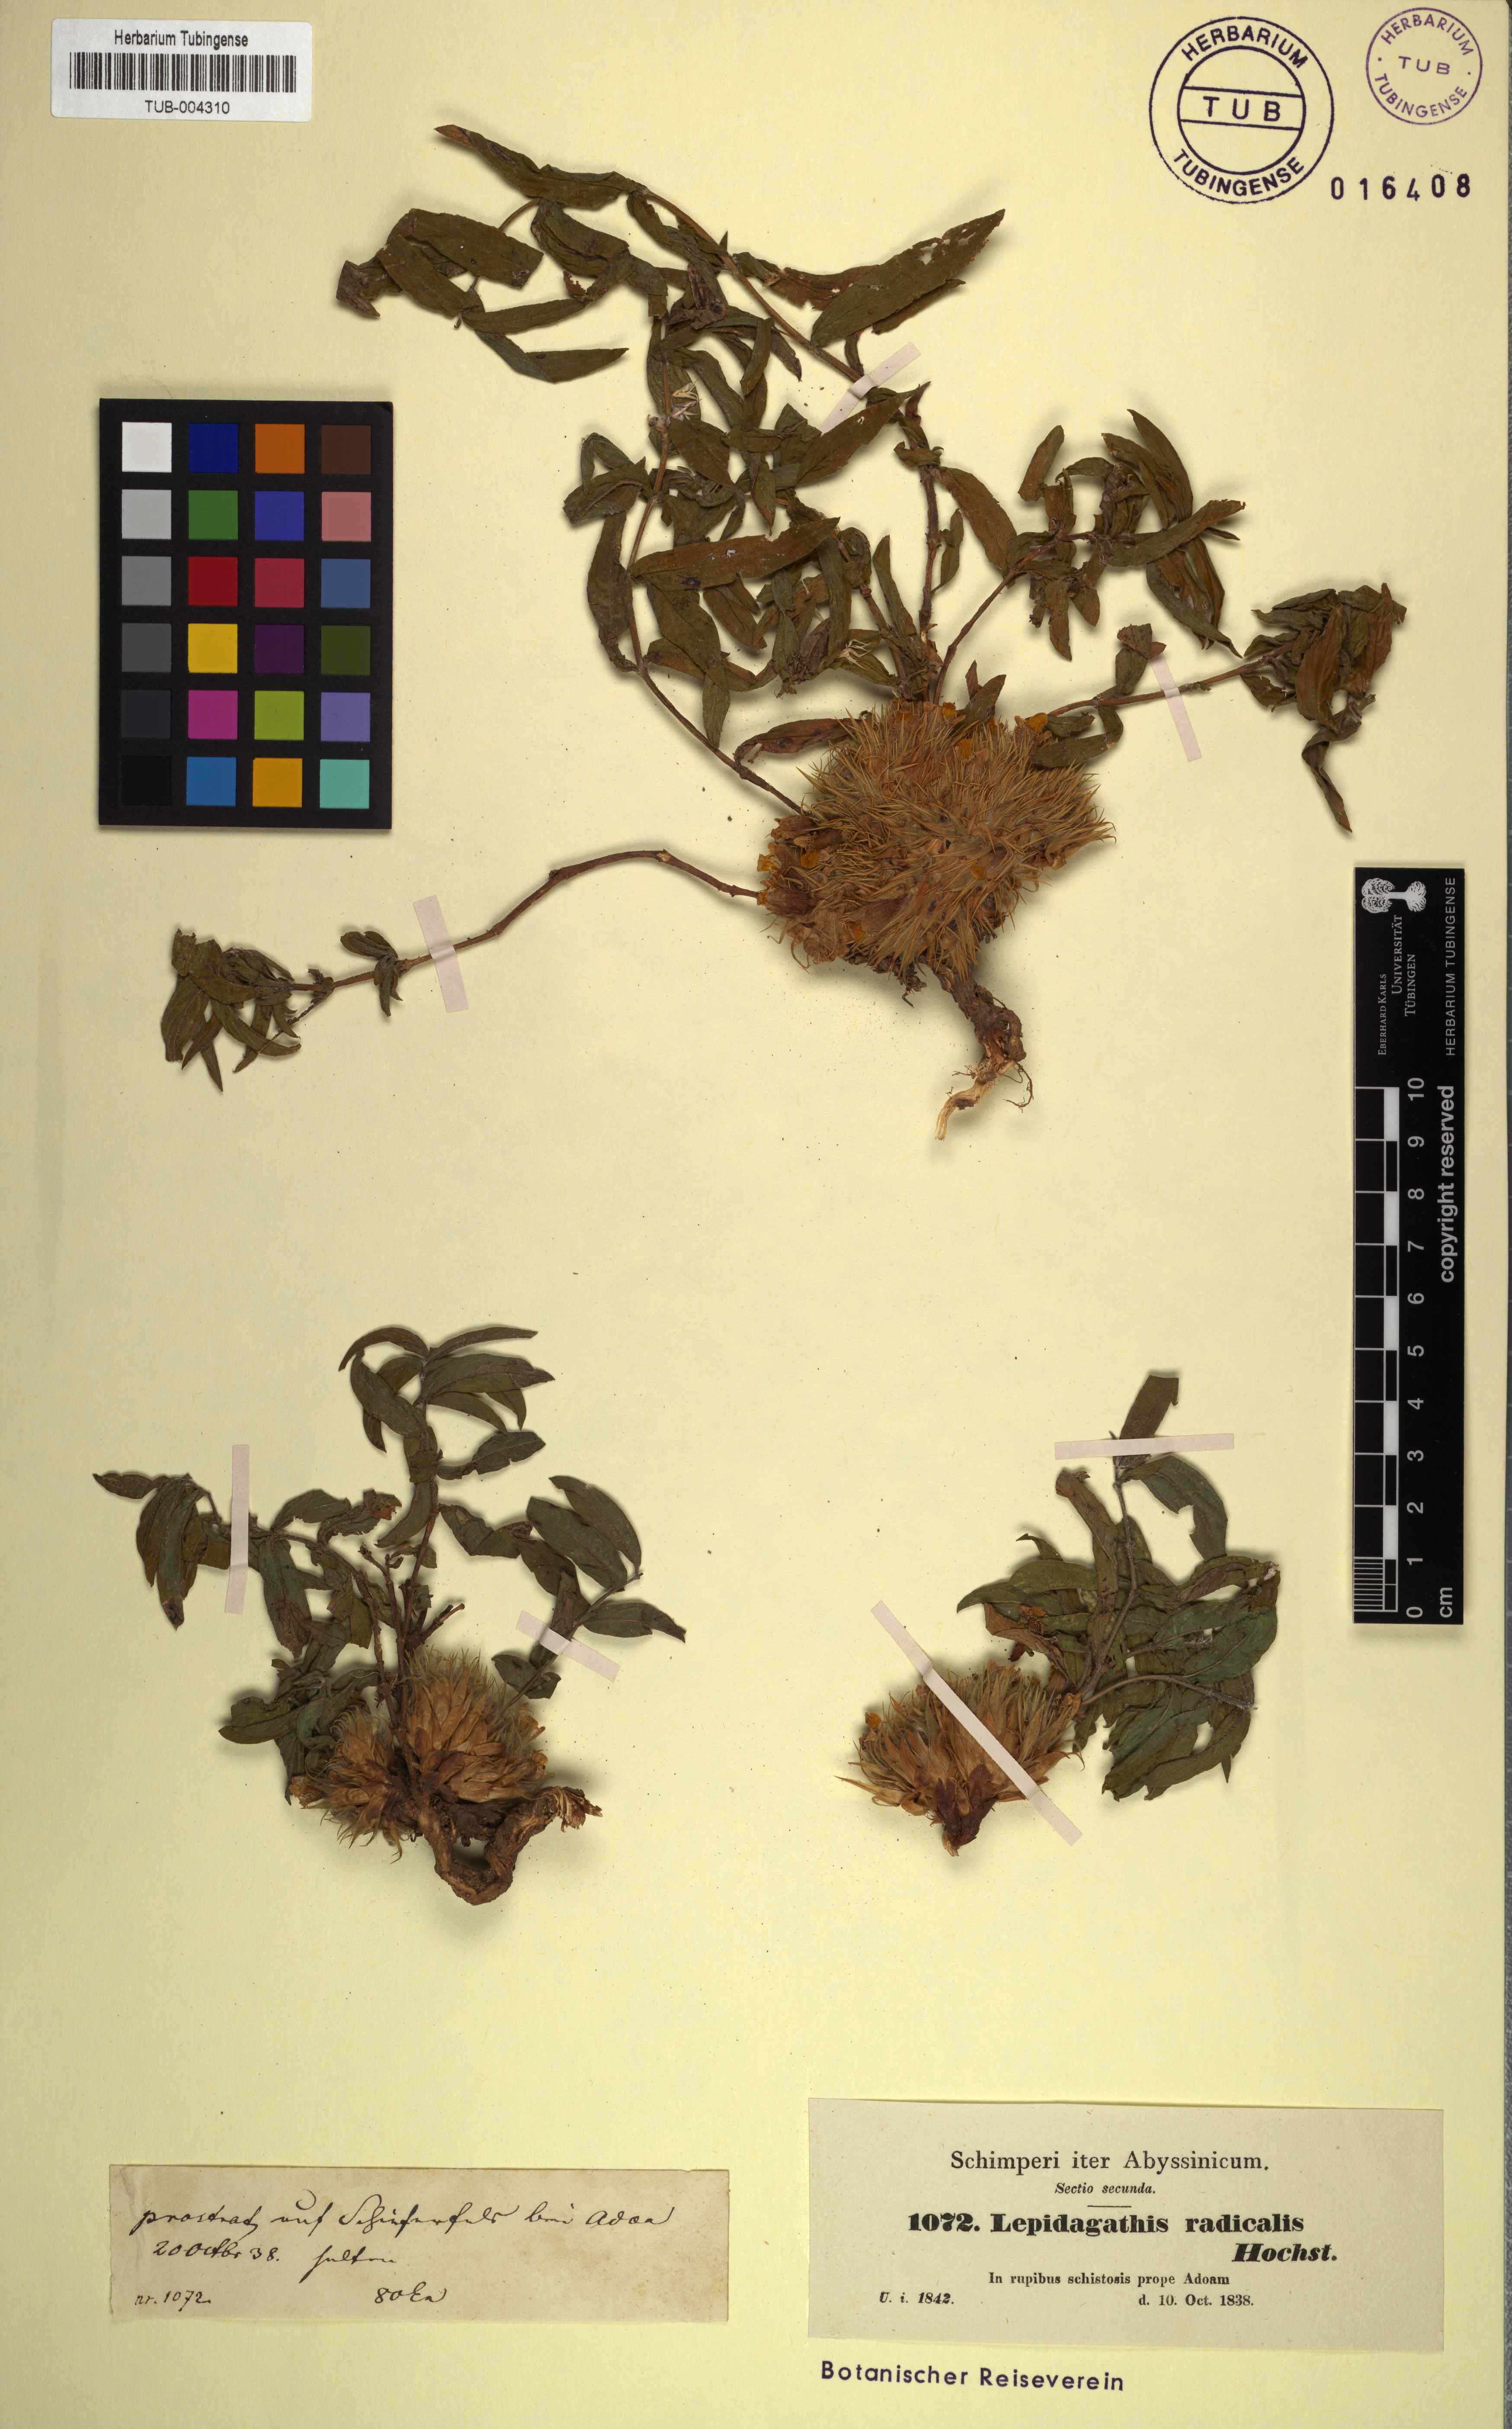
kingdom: Plantae
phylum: Tracheophyta
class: Magnoliopsida
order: Lamiales
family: Acanthaceae
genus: Lepidagathis
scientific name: Lepidagathis collina
